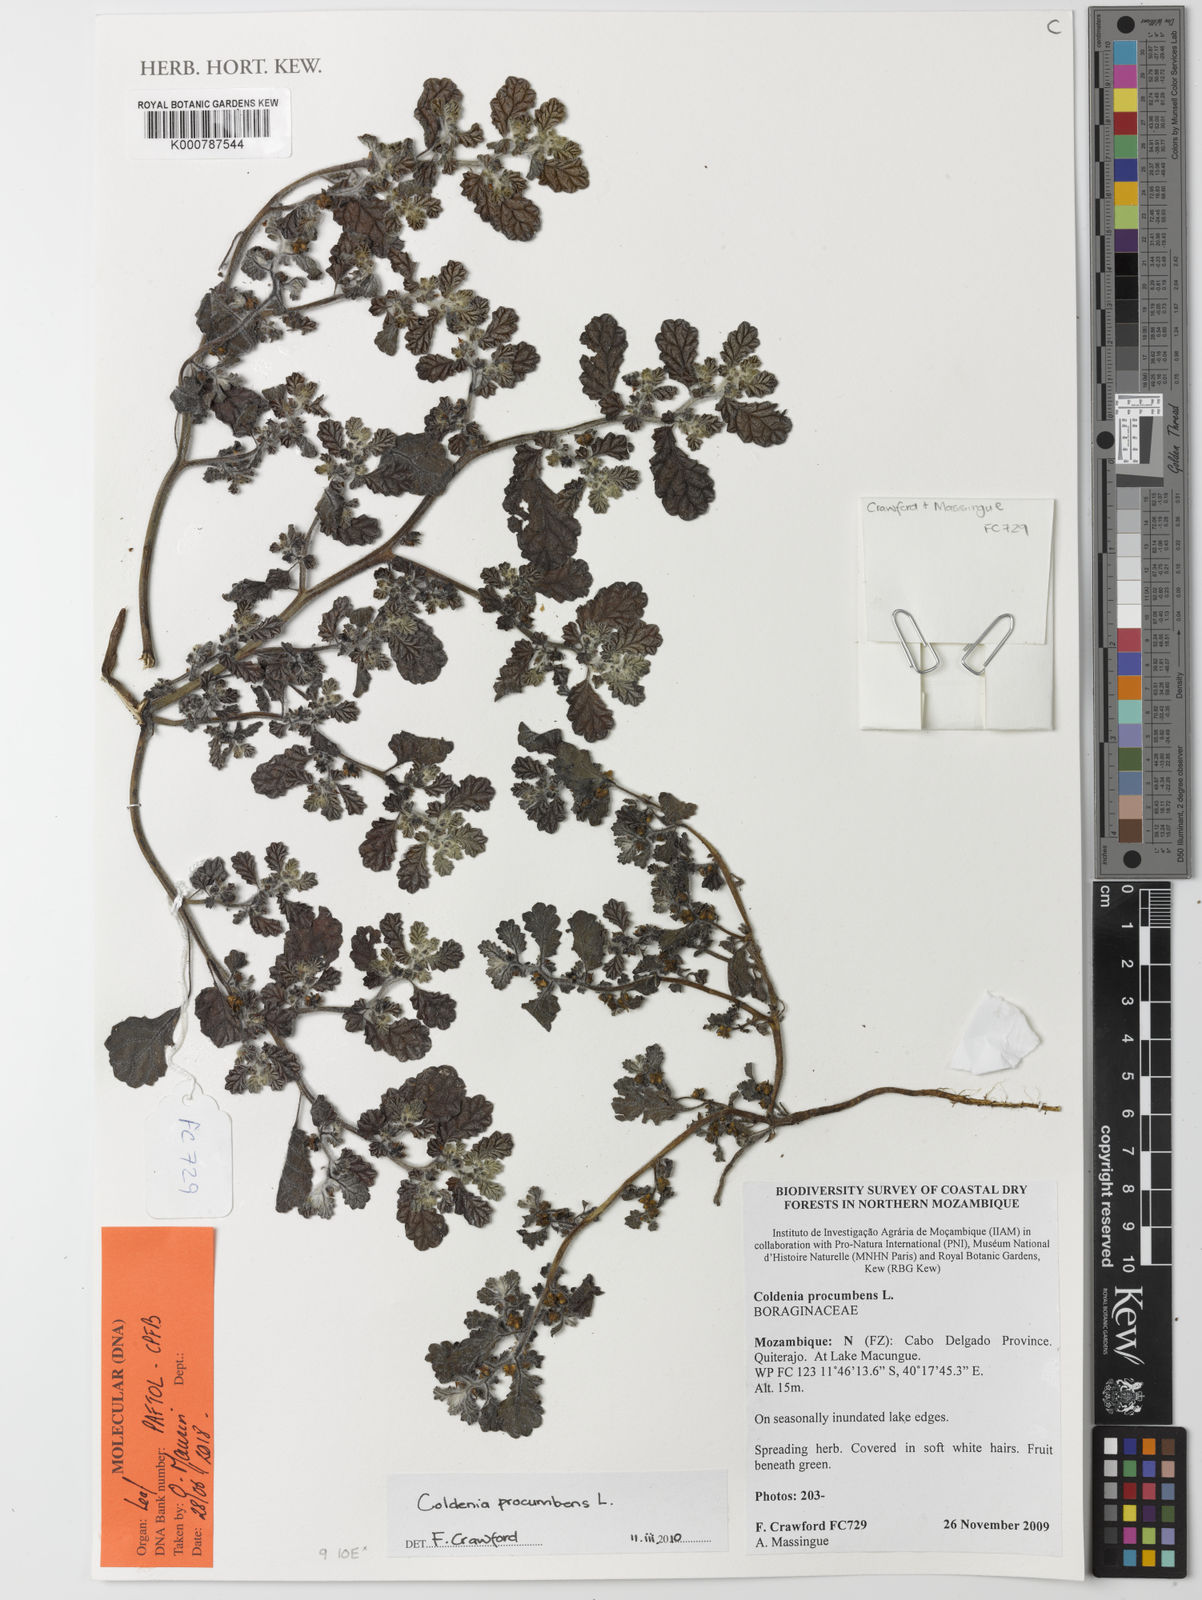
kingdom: Plantae
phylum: Tracheophyta
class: Magnoliopsida
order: Boraginales
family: Coldeniaceae
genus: Coldenia
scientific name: Coldenia procumbens
